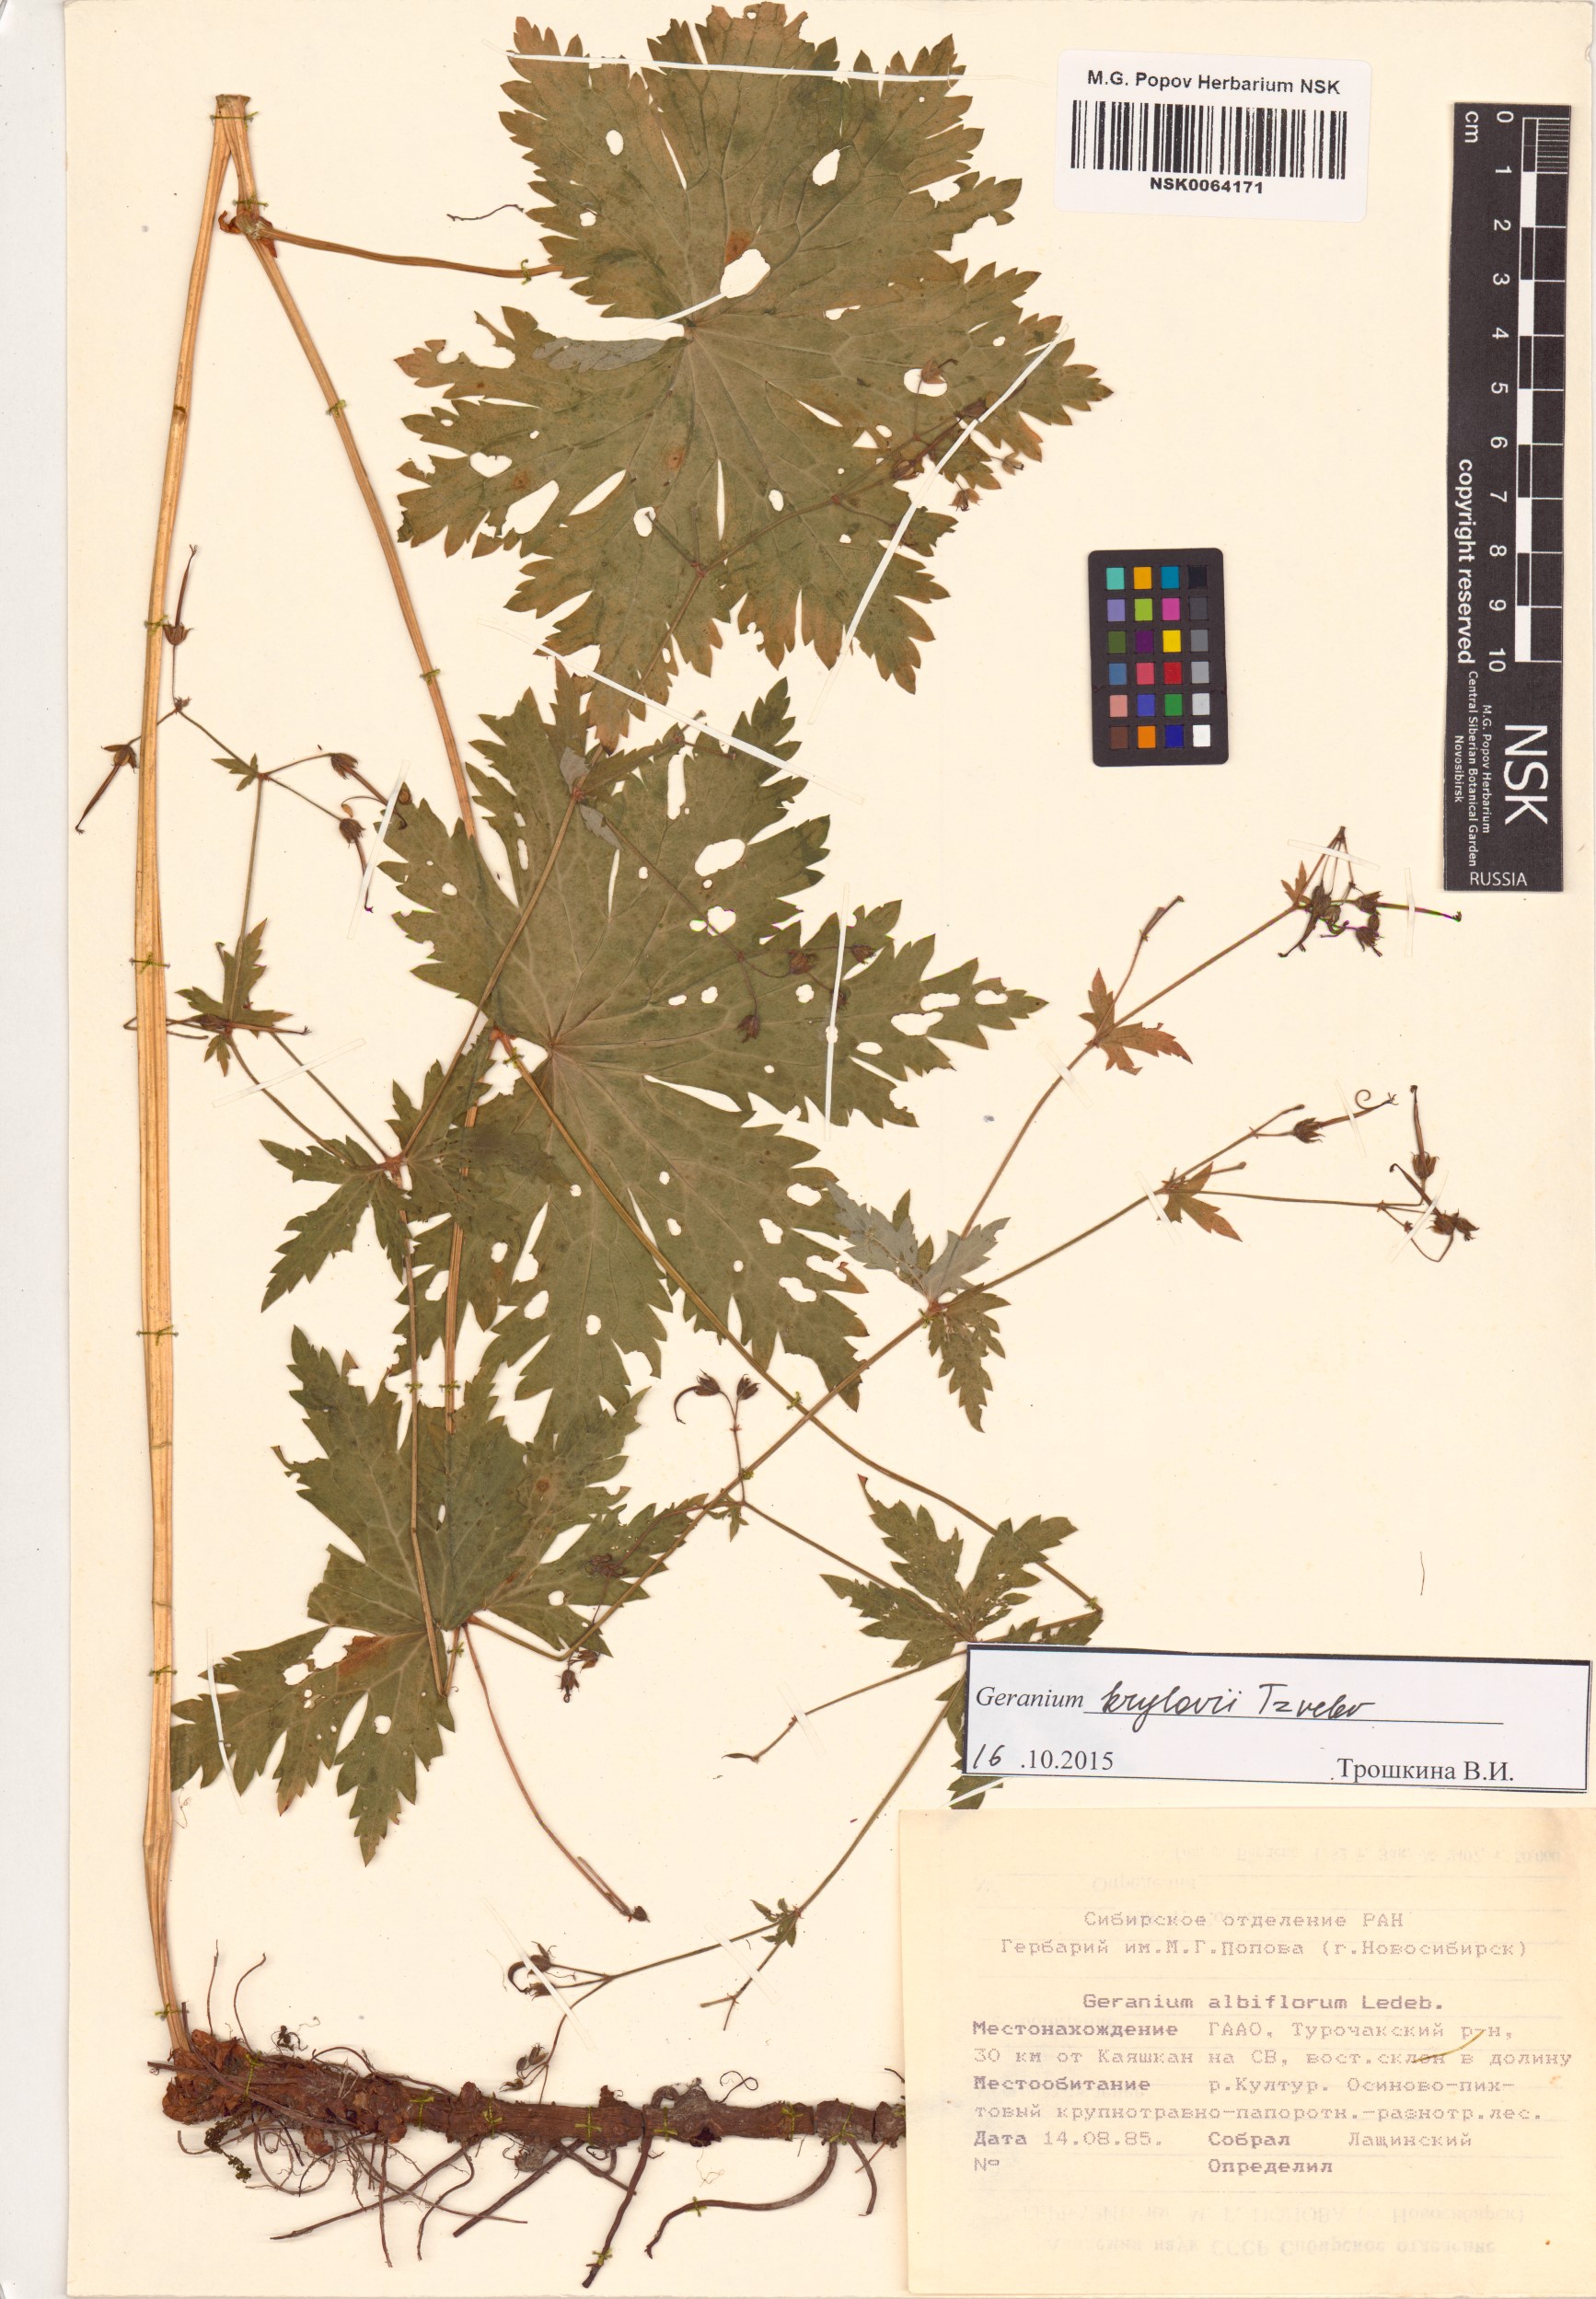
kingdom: Plantae
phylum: Tracheophyta
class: Magnoliopsida
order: Geraniales
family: Geraniaceae
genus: Geranium
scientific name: Geranium sylvaticum
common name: Wood crane's-bill
